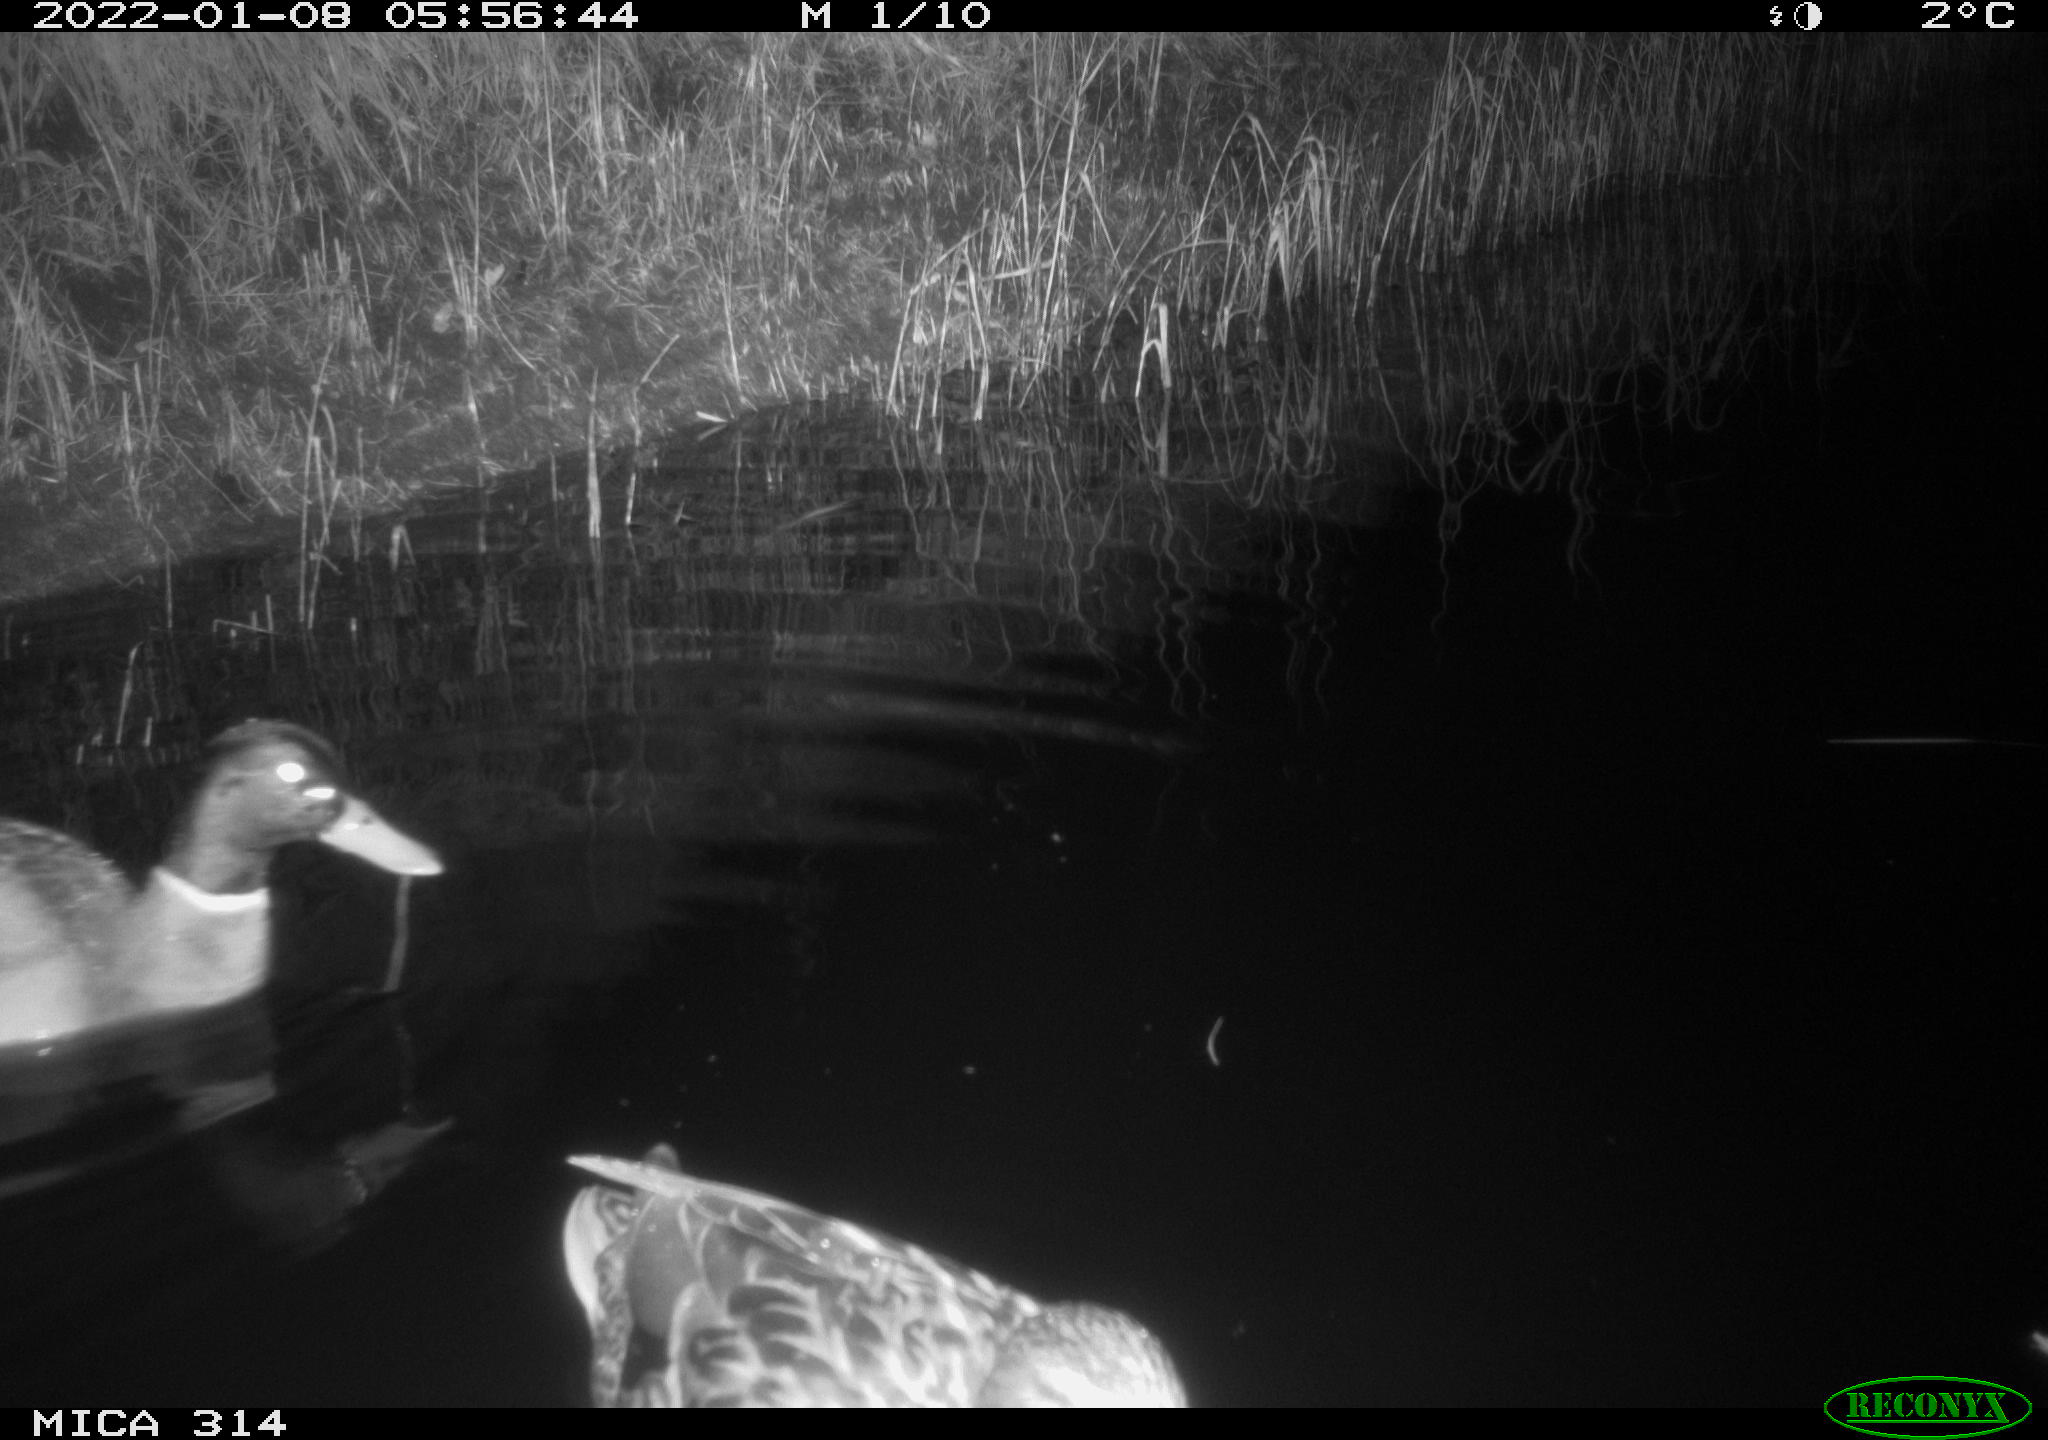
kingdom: Animalia
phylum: Chordata
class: Aves
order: Anseriformes
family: Anatidae
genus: Anas
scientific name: Anas
